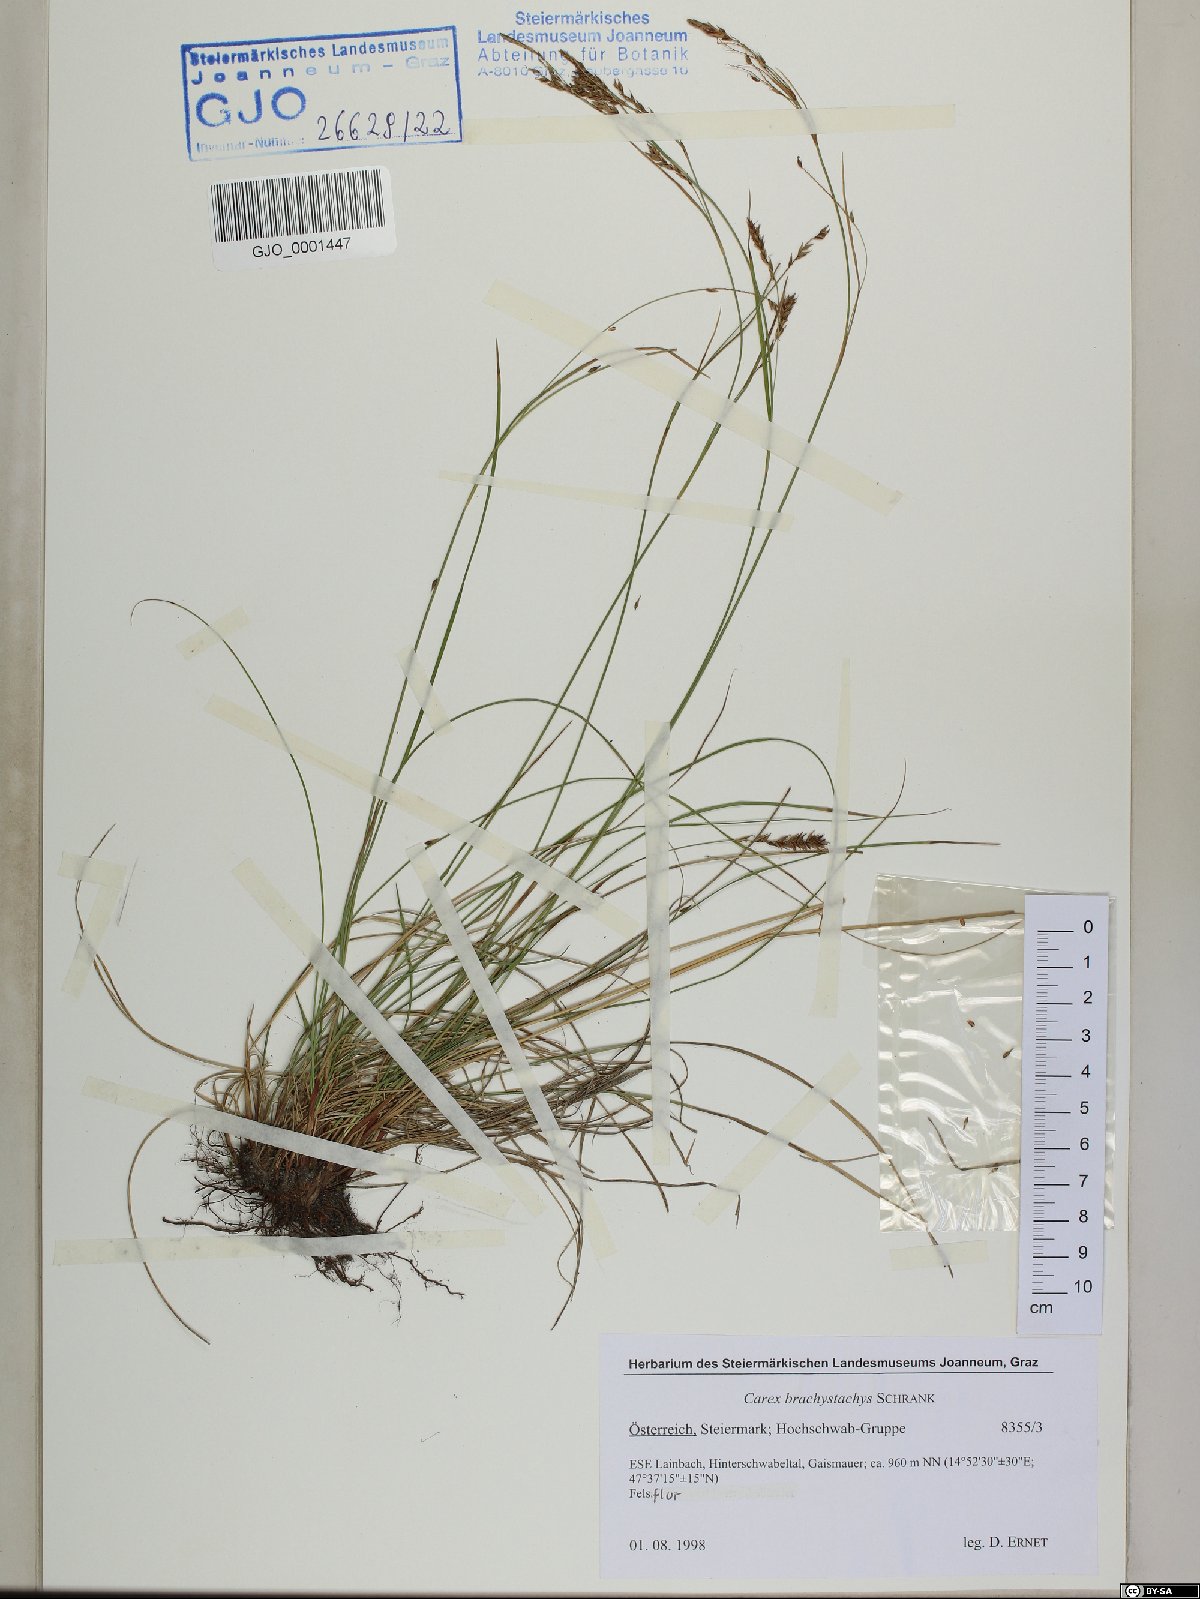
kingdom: Plantae
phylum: Tracheophyta
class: Liliopsida
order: Poales
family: Cyperaceae
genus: Carex
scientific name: Carex brachystachys
